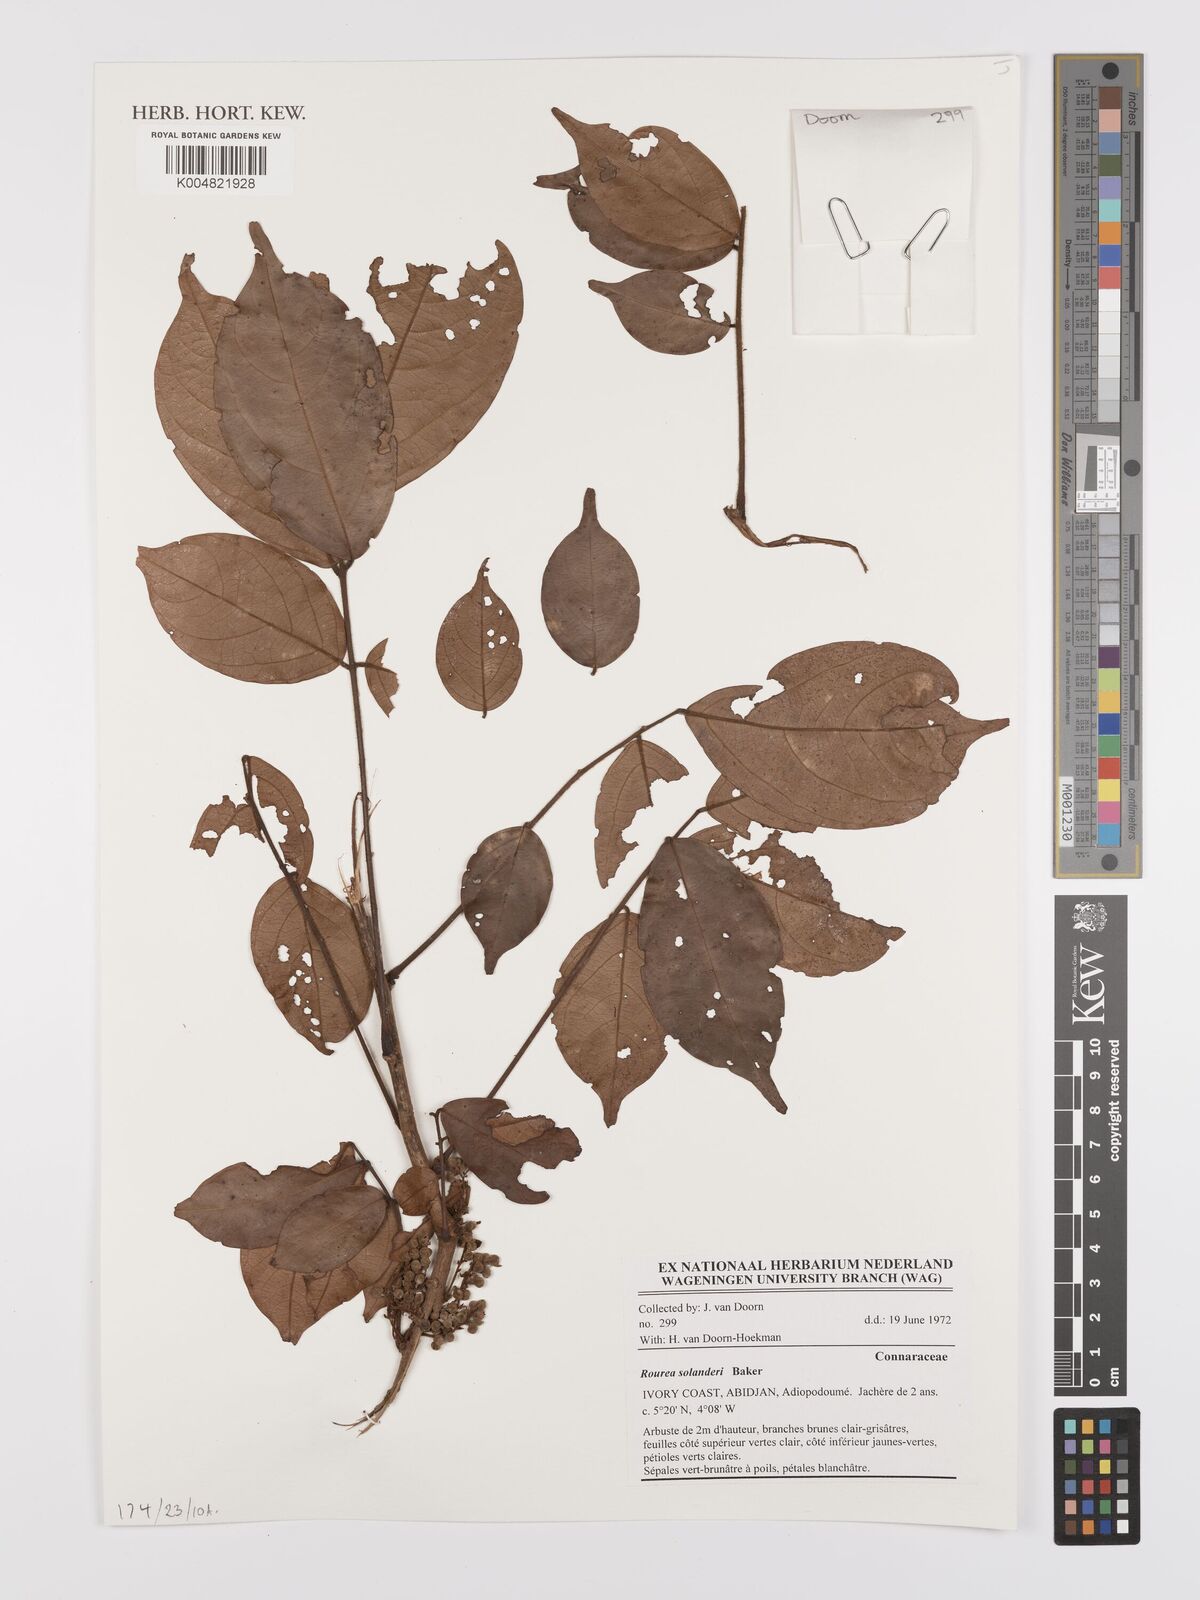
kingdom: Plantae
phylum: Tracheophyta
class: Magnoliopsida
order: Oxalidales
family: Connaraceae
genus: Rourea
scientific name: Rourea solanderi
